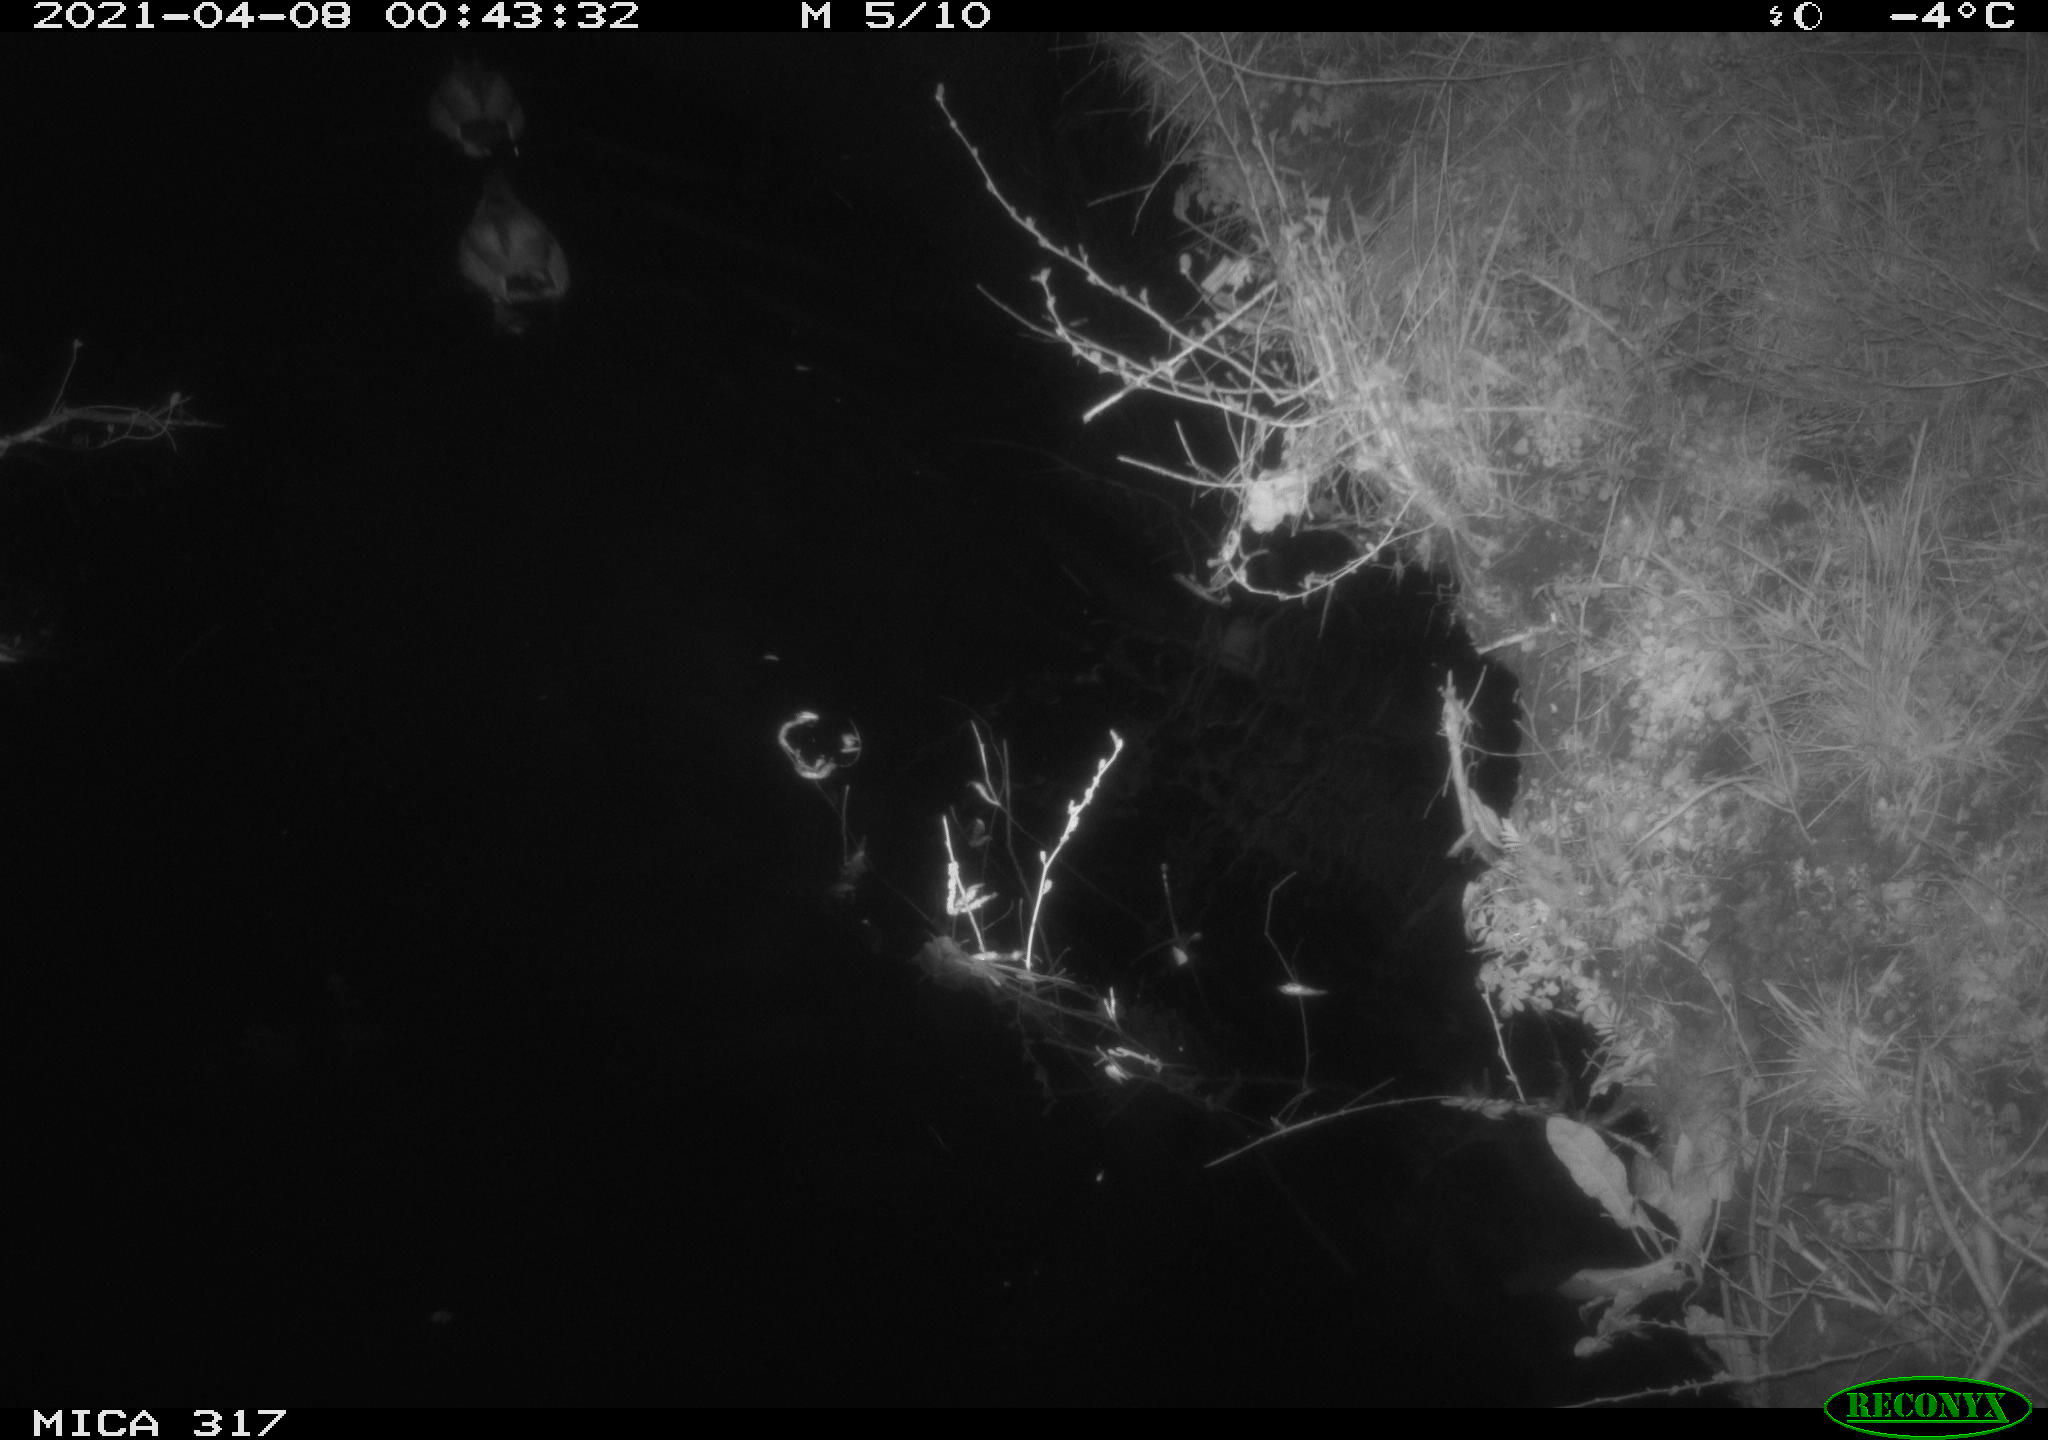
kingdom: Animalia
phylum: Chordata
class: Aves
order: Anseriformes
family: Anatidae
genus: Anas
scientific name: Anas platyrhynchos
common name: Mallard
